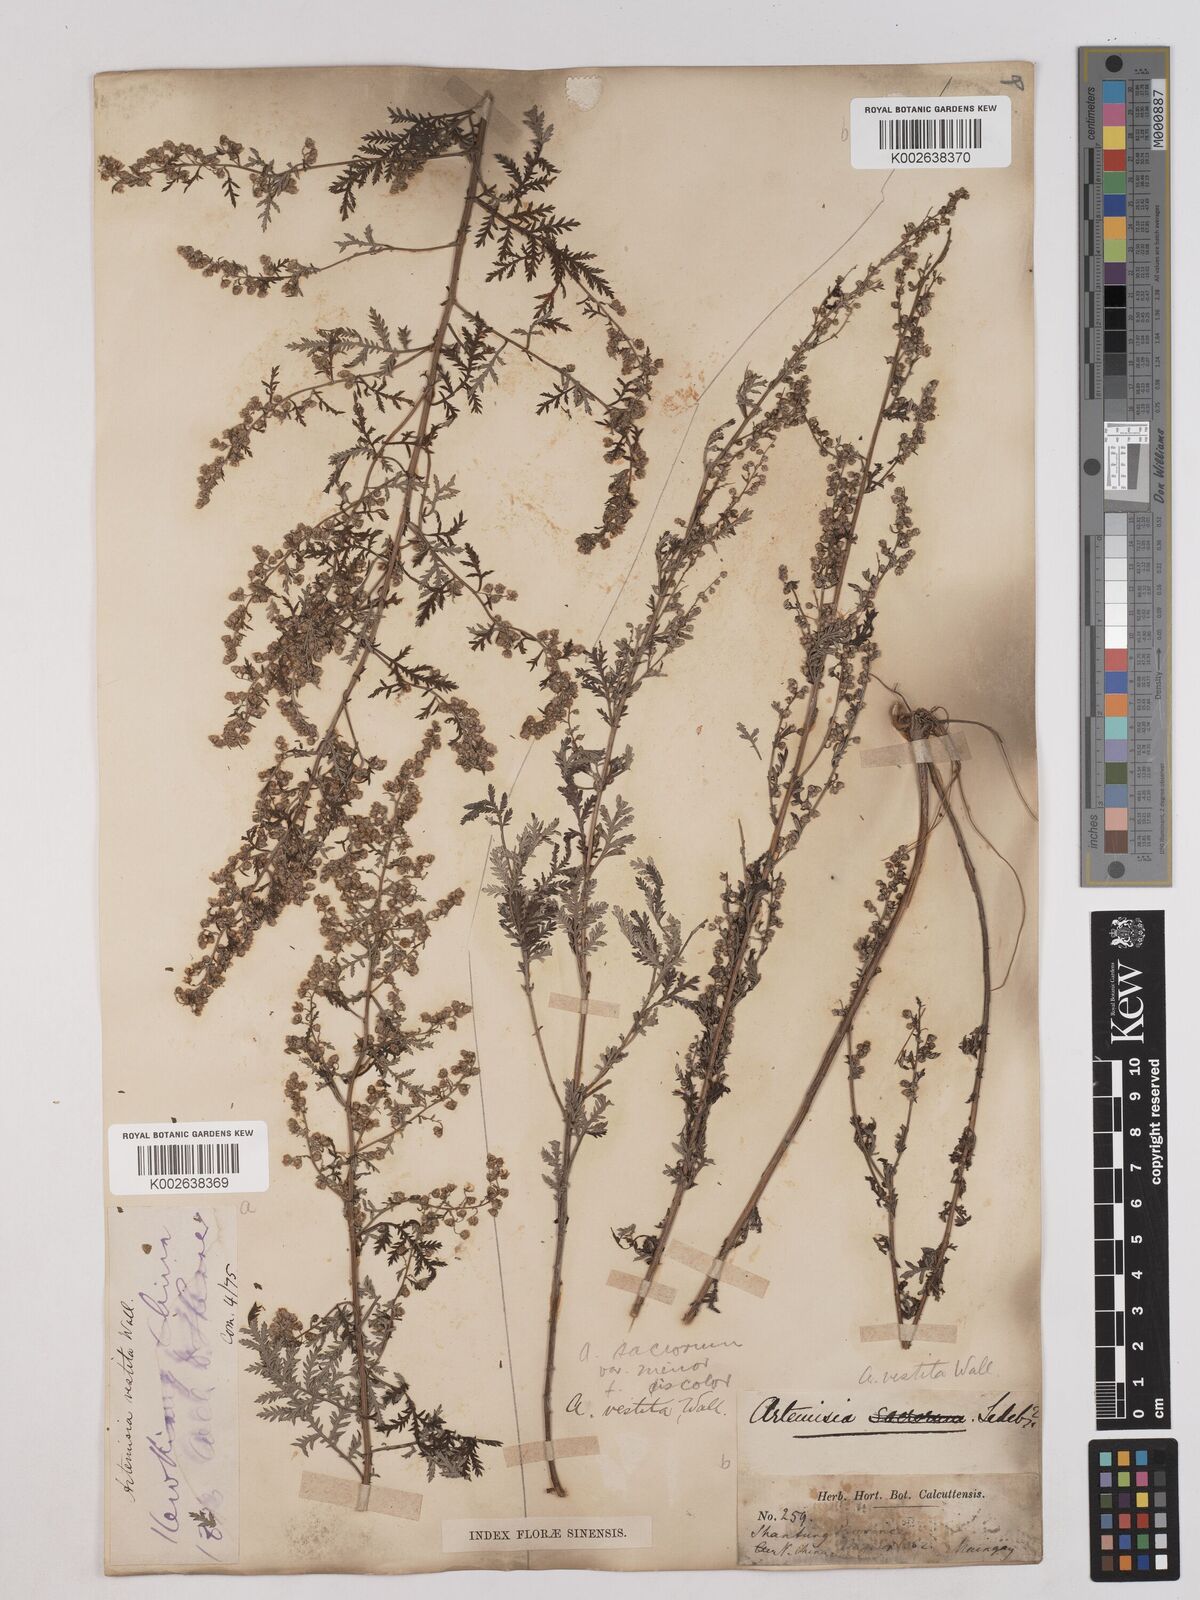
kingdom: Plantae
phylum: Tracheophyta
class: Magnoliopsida
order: Asterales
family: Asteraceae
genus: Artemisia
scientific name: Artemisia gmelinii
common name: Gmelin's wormwood
